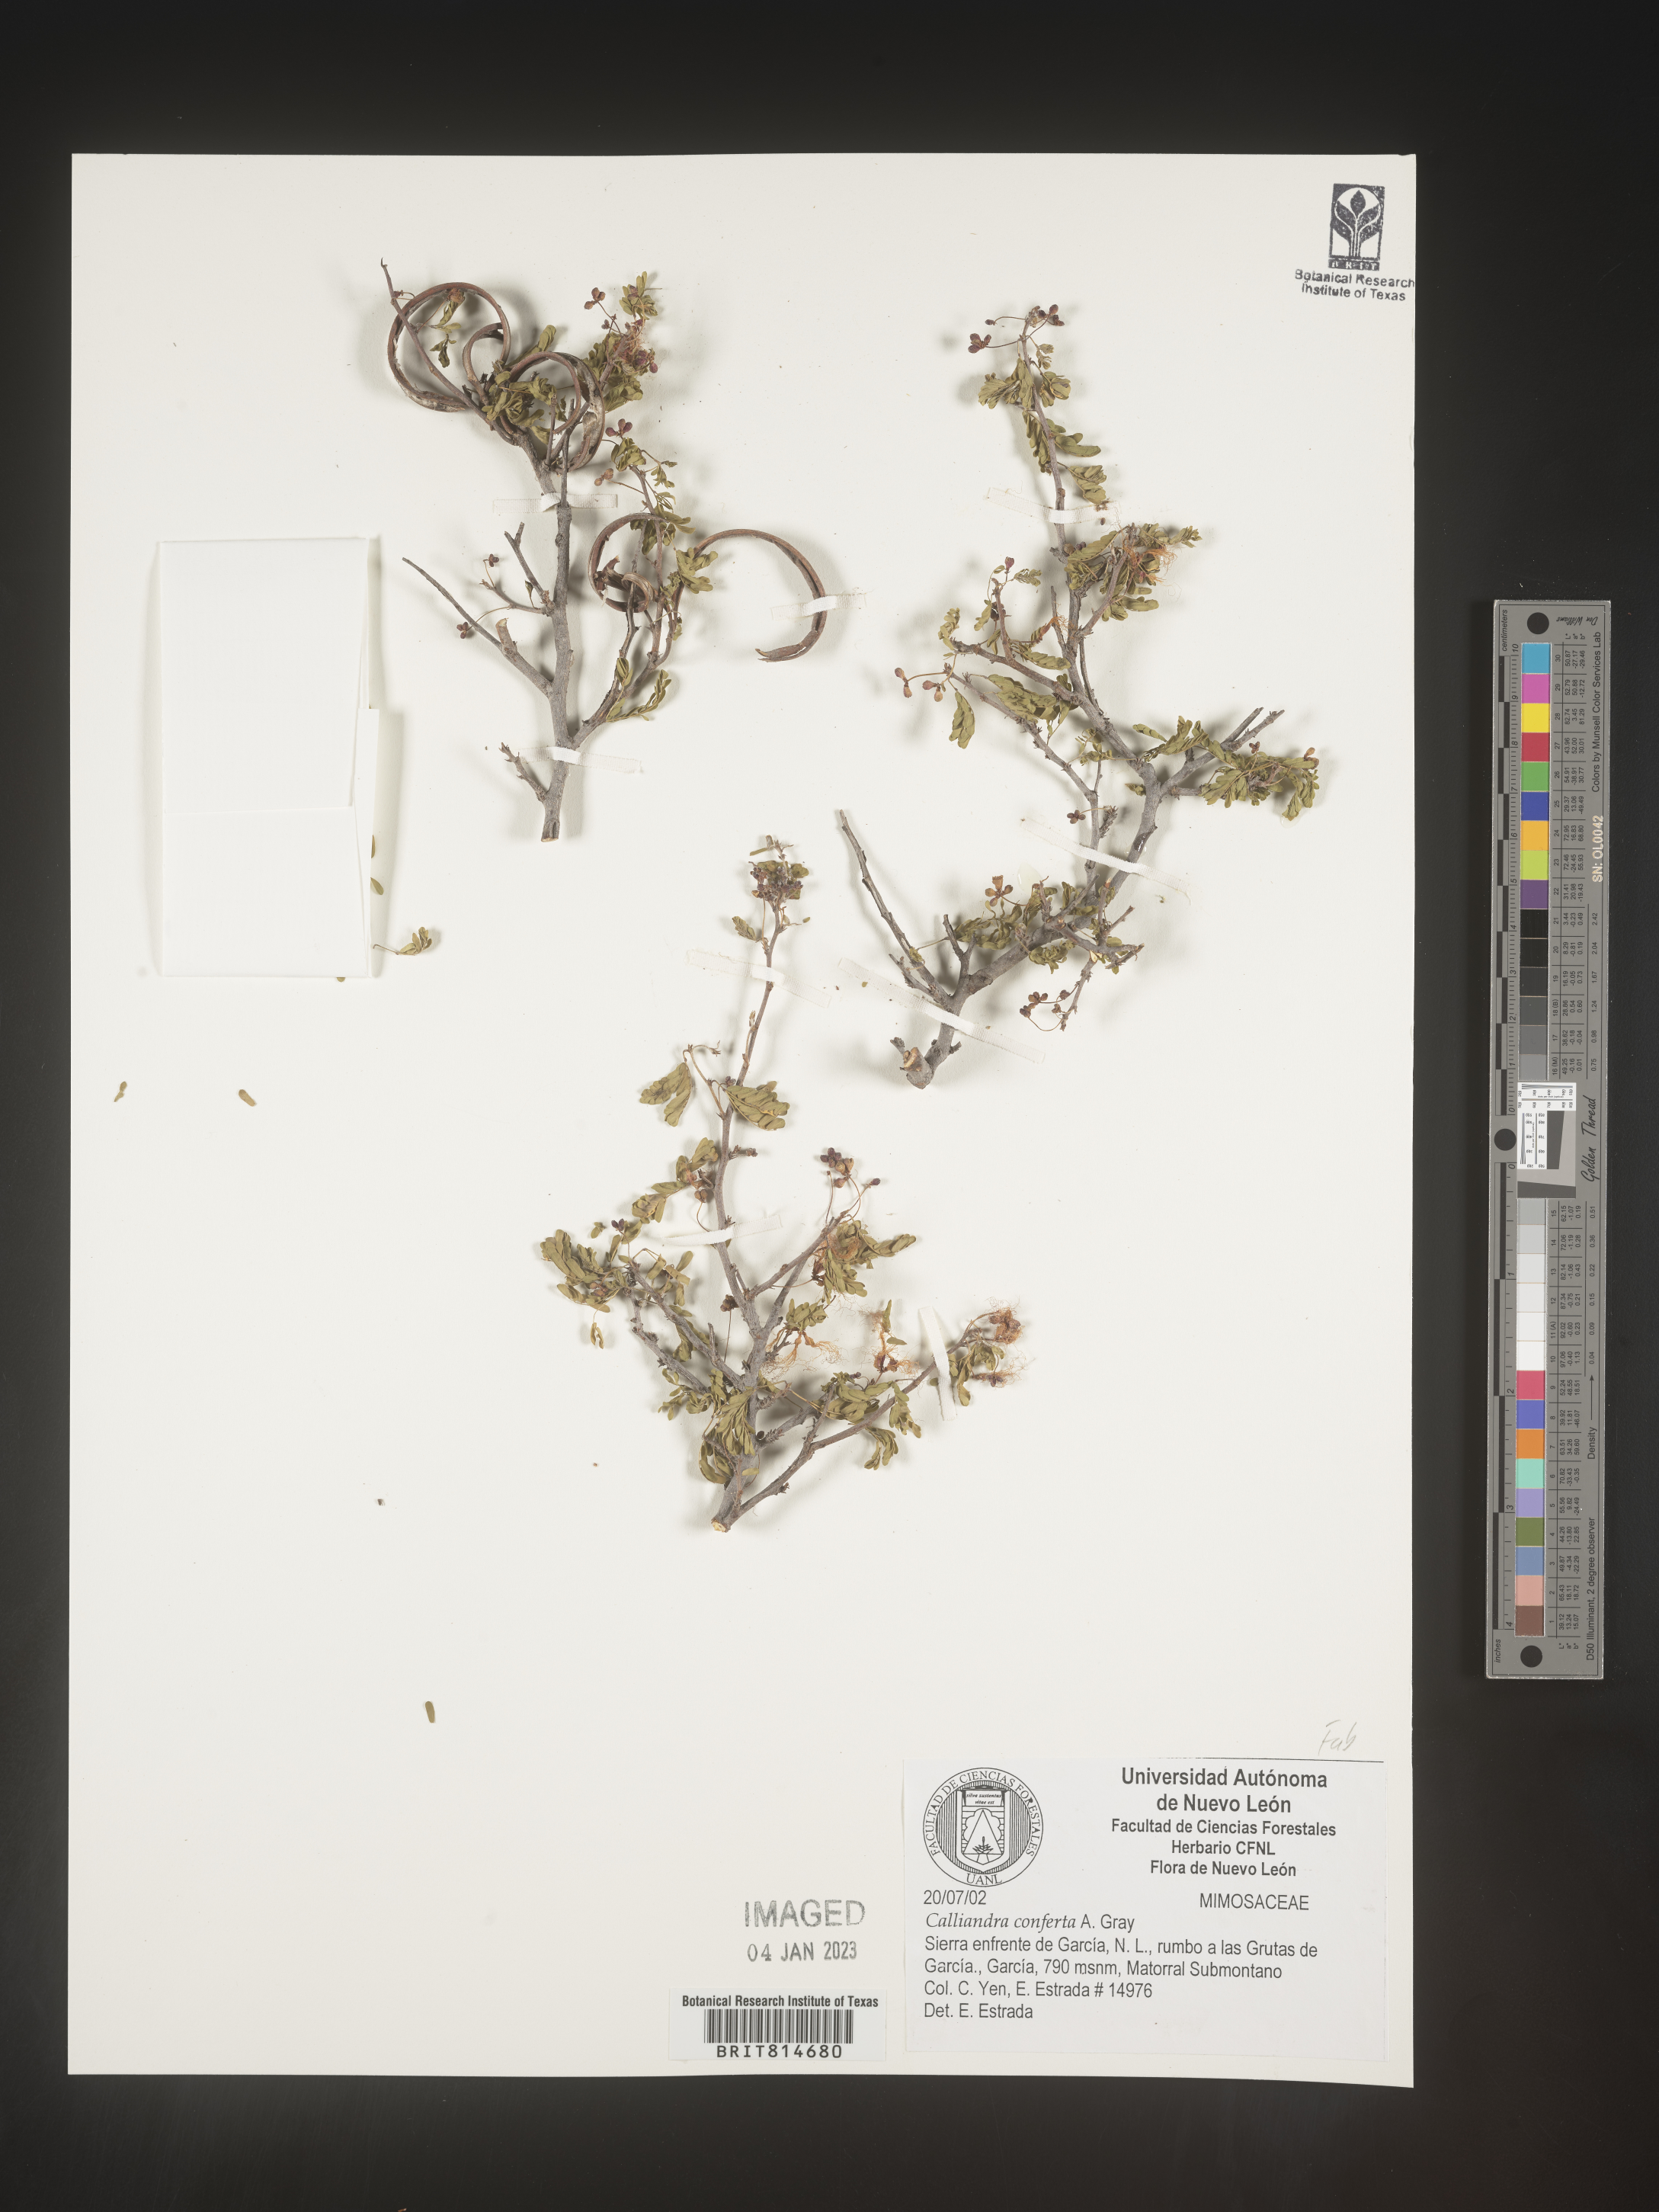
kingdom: Plantae
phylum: Tracheophyta
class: Magnoliopsida
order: Fabales
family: Fabaceae
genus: Calliandra
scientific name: Calliandra
